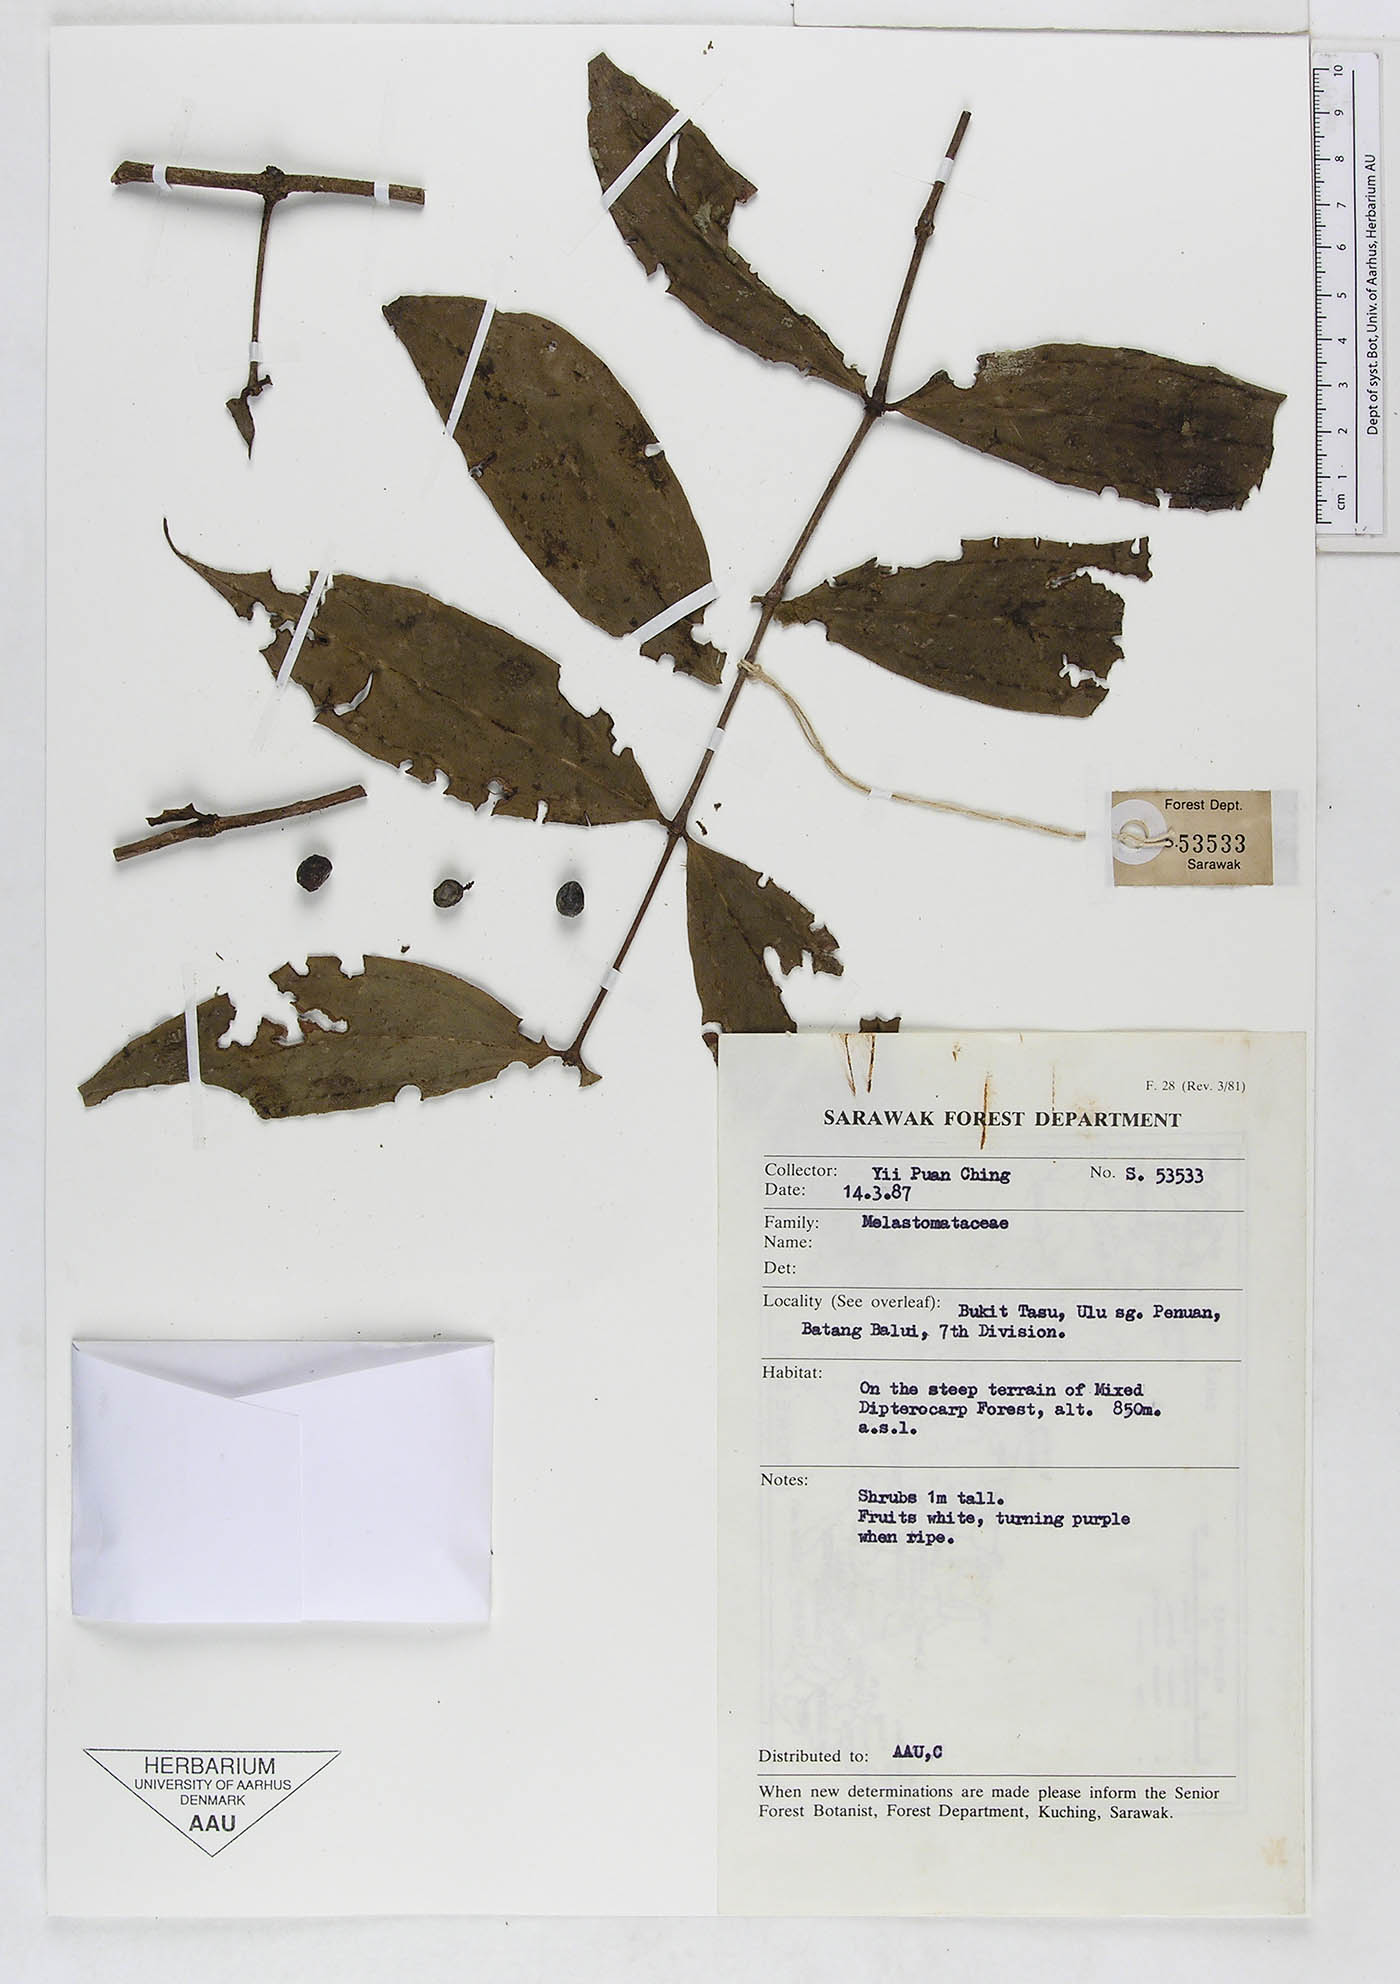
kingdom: Plantae
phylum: Tracheophyta
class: Magnoliopsida
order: Myrtales
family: Melastomataceae
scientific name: Melastomataceae
